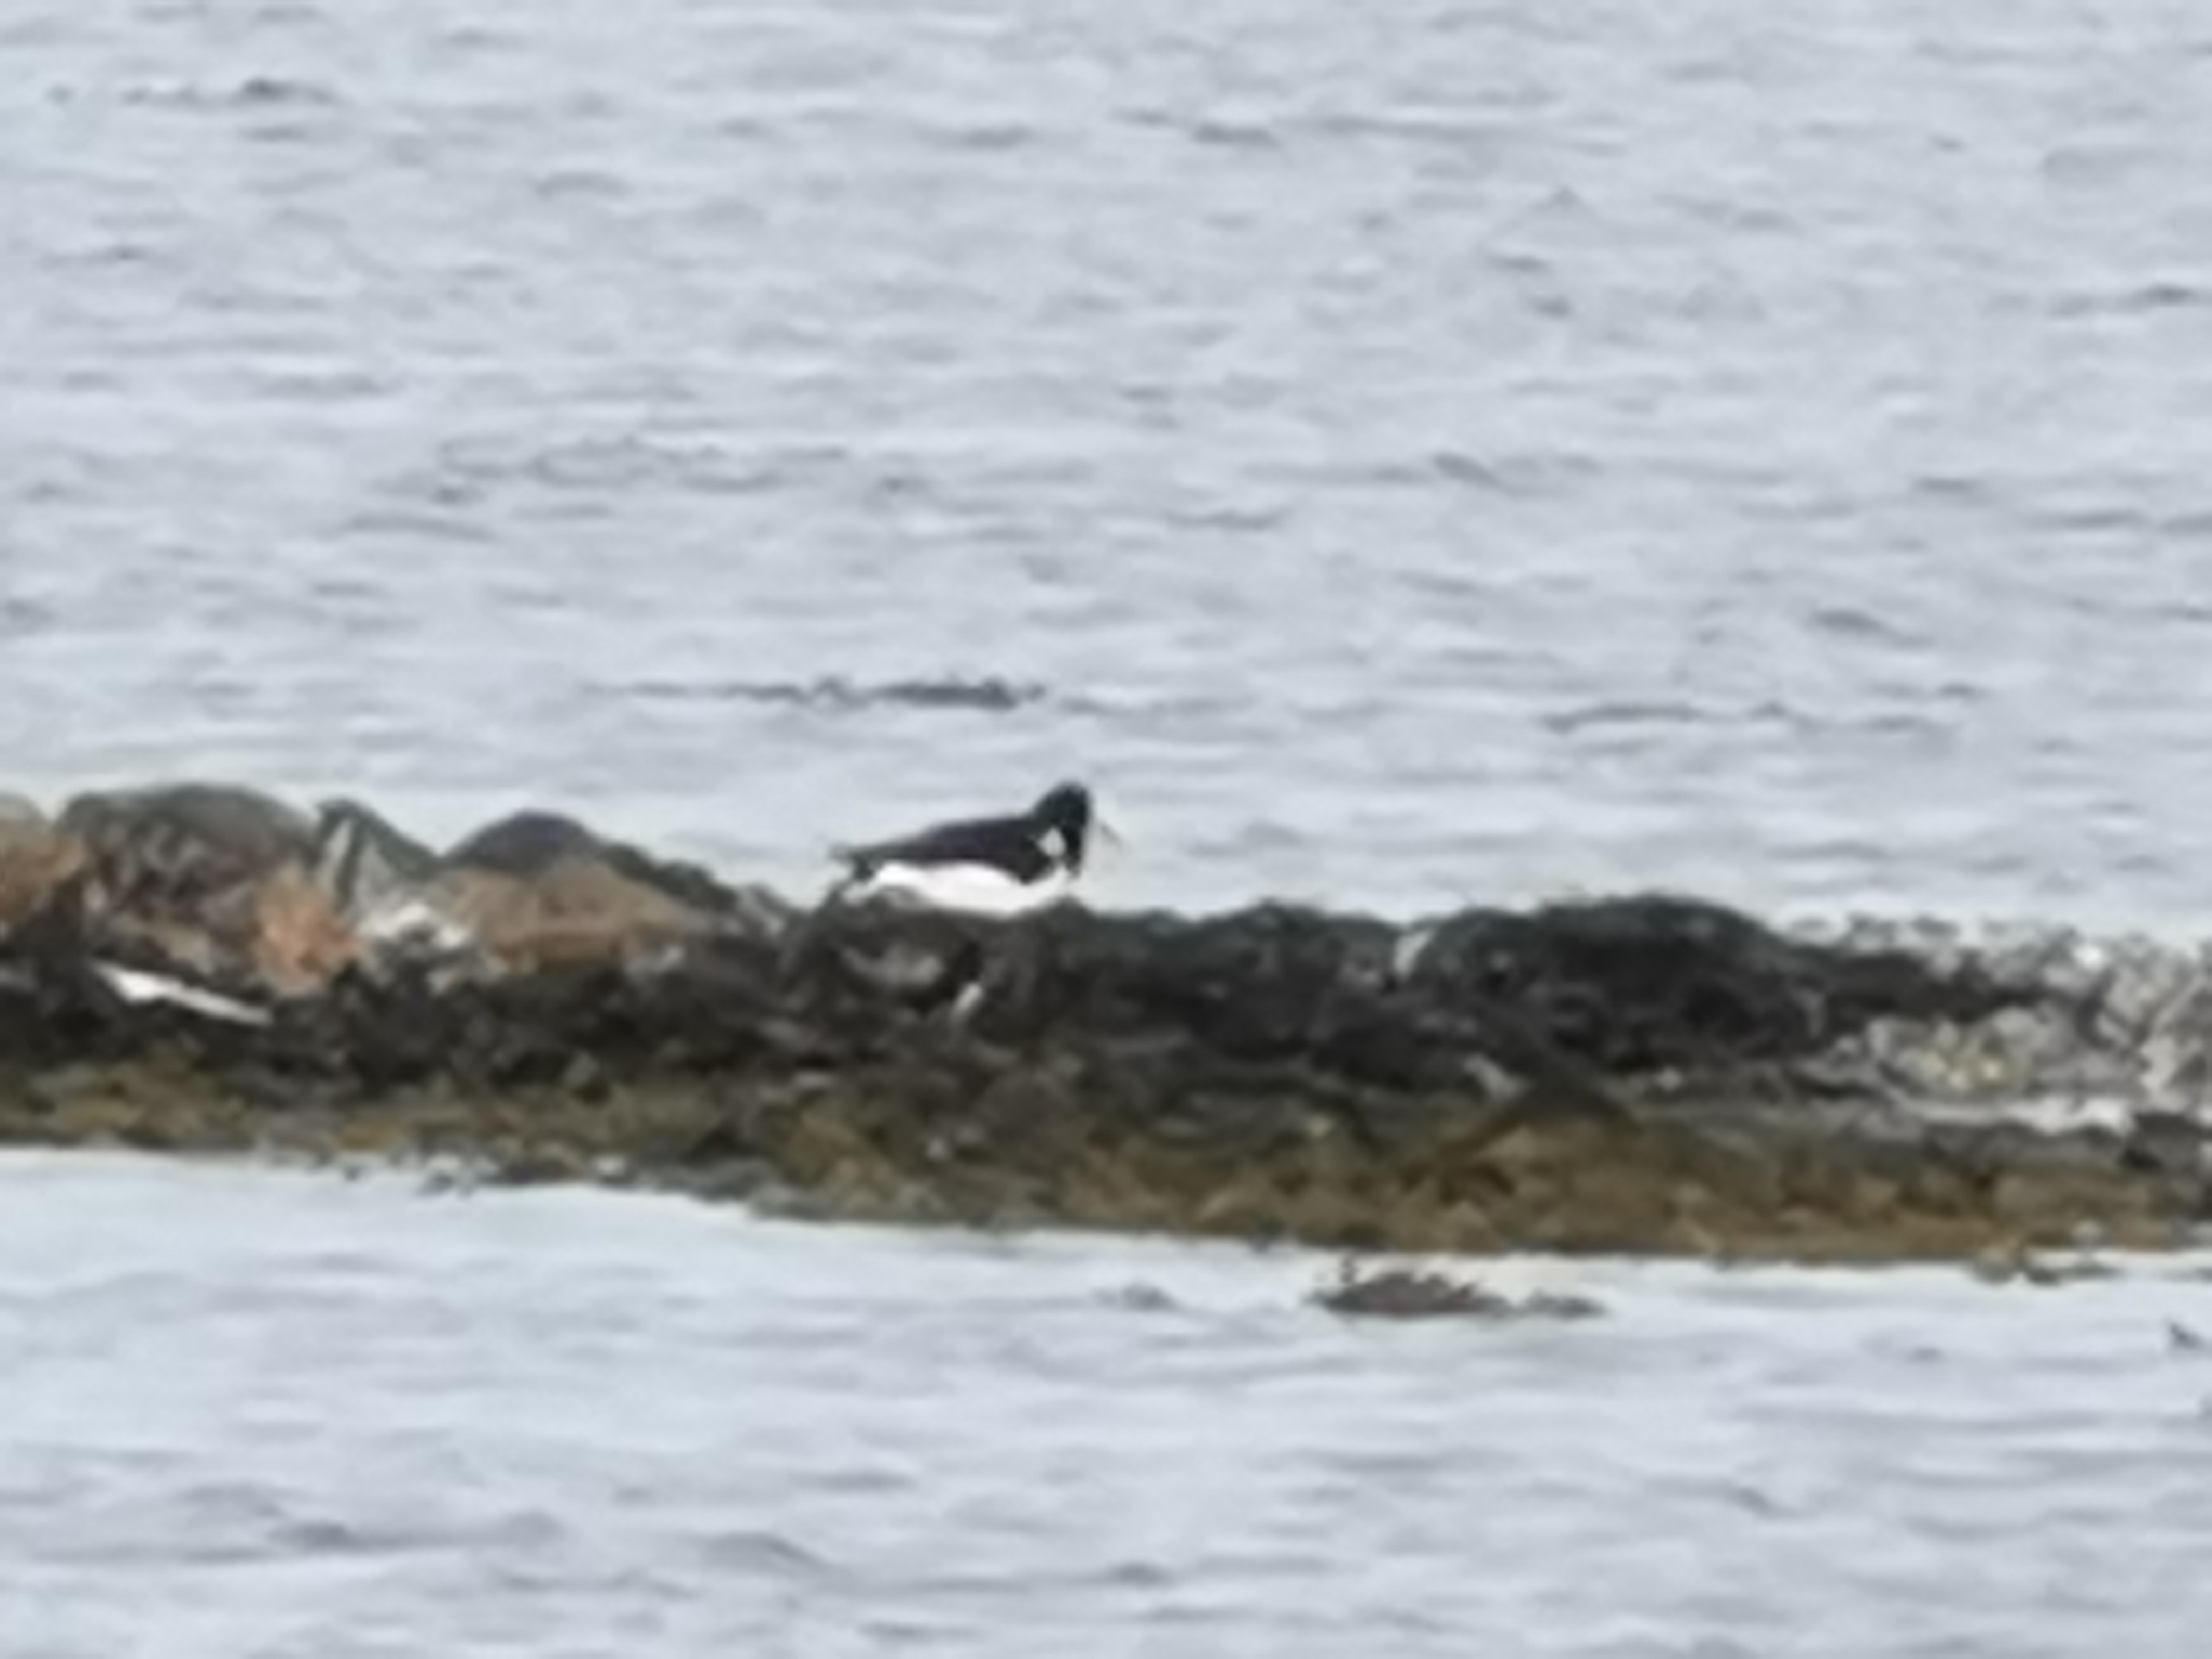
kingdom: Animalia
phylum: Chordata
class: Aves
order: Charadriiformes
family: Haematopodidae
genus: Haematopus
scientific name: Haematopus ostralegus
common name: Strandskade
